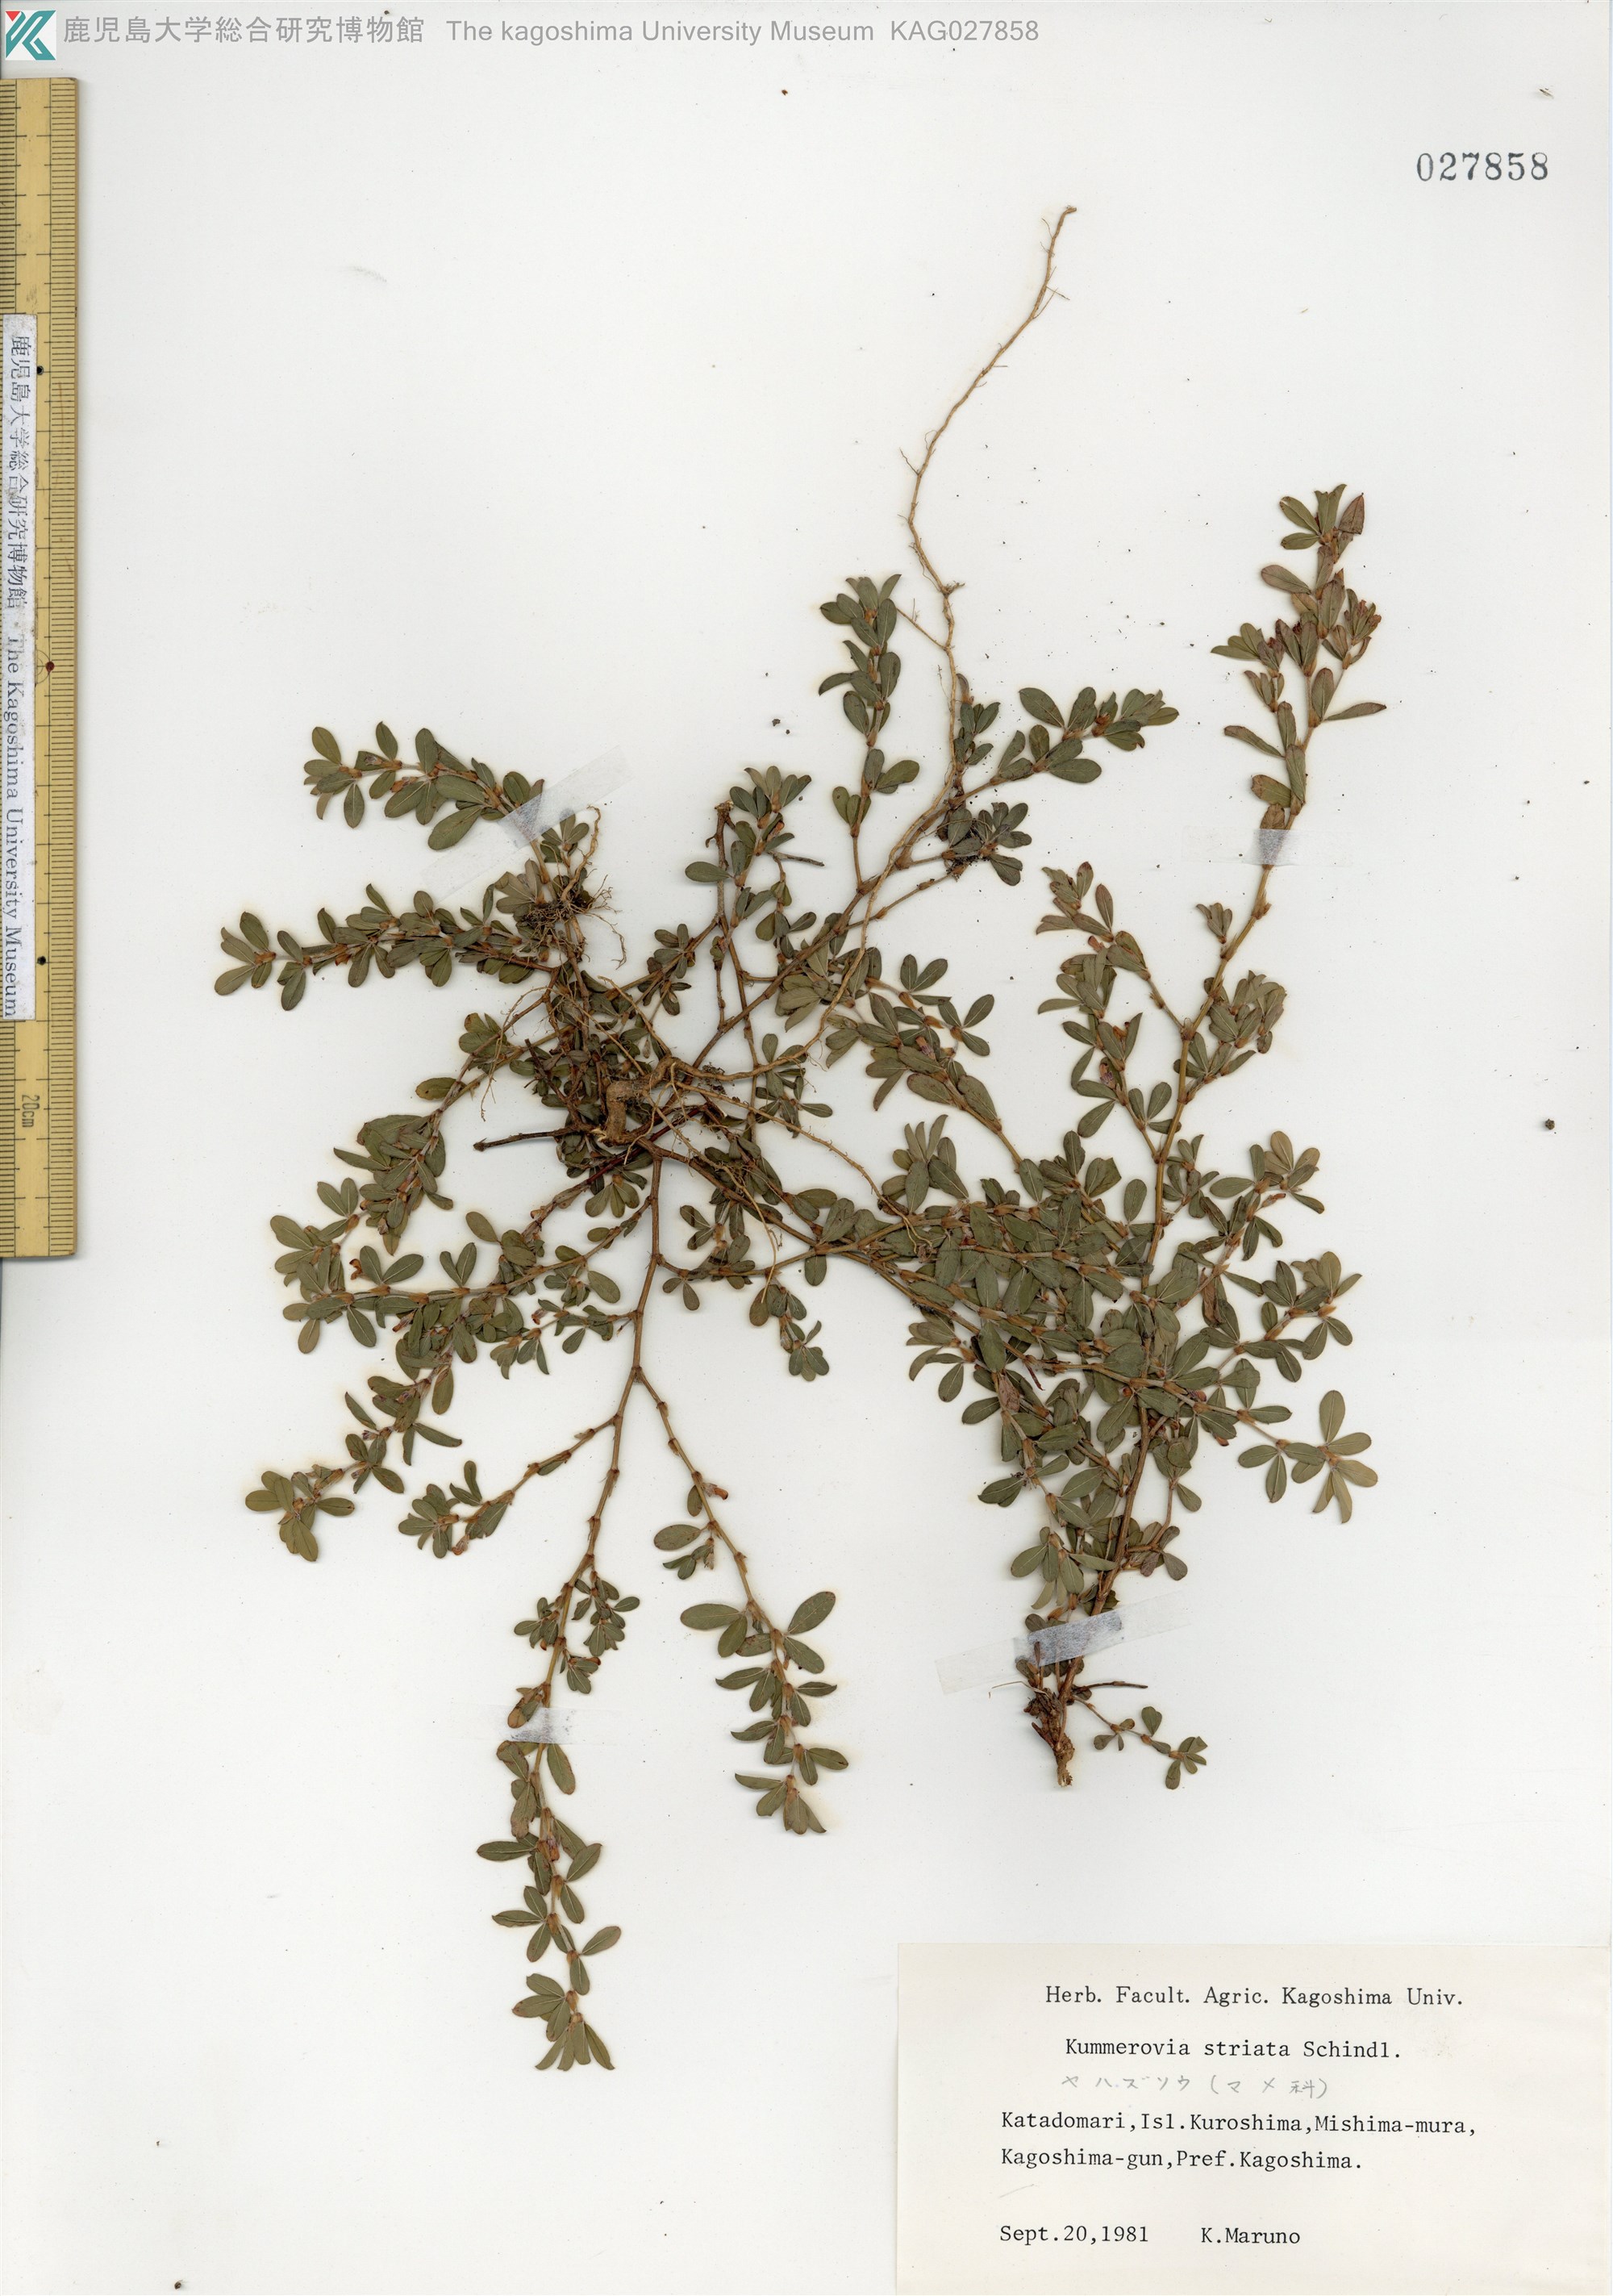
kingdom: Plantae
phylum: Tracheophyta
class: Magnoliopsida
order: Fabales
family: Fabaceae
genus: Kummerowia
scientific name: Kummerowia striata
